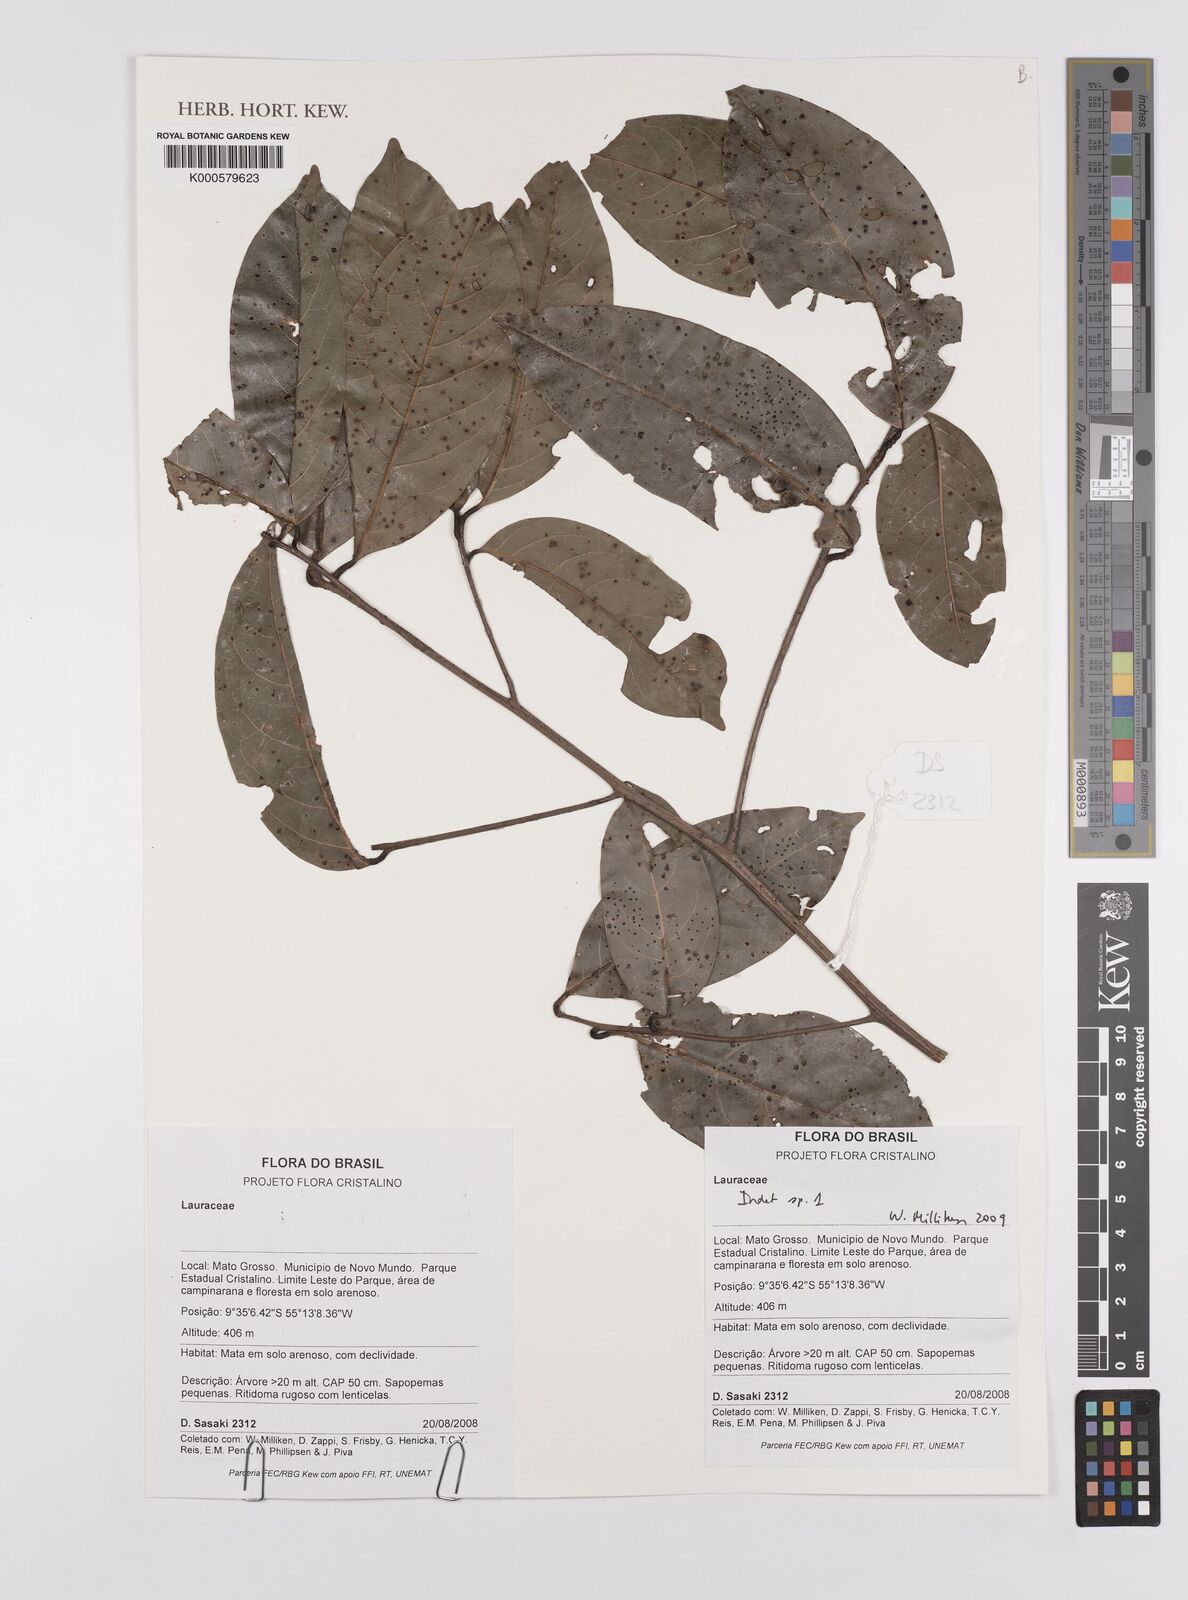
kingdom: Plantae
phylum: Tracheophyta
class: Magnoliopsida
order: Laurales
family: Lauraceae
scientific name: Lauraceae
